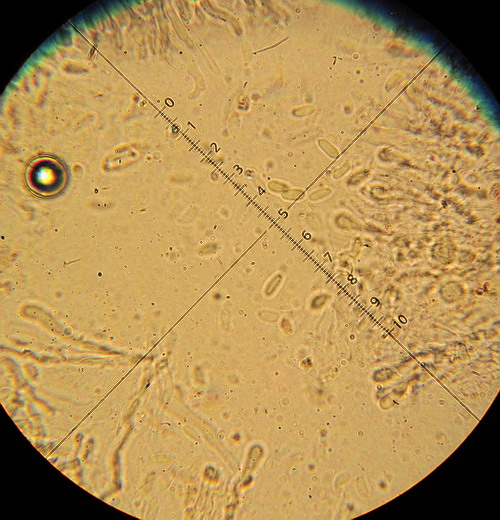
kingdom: Fungi
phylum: Basidiomycota
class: Agaricomycetes
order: Hymenochaetales
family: Rickenellaceae
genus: Resinicium
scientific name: Resinicium bicolor
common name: almindelig vokstand
